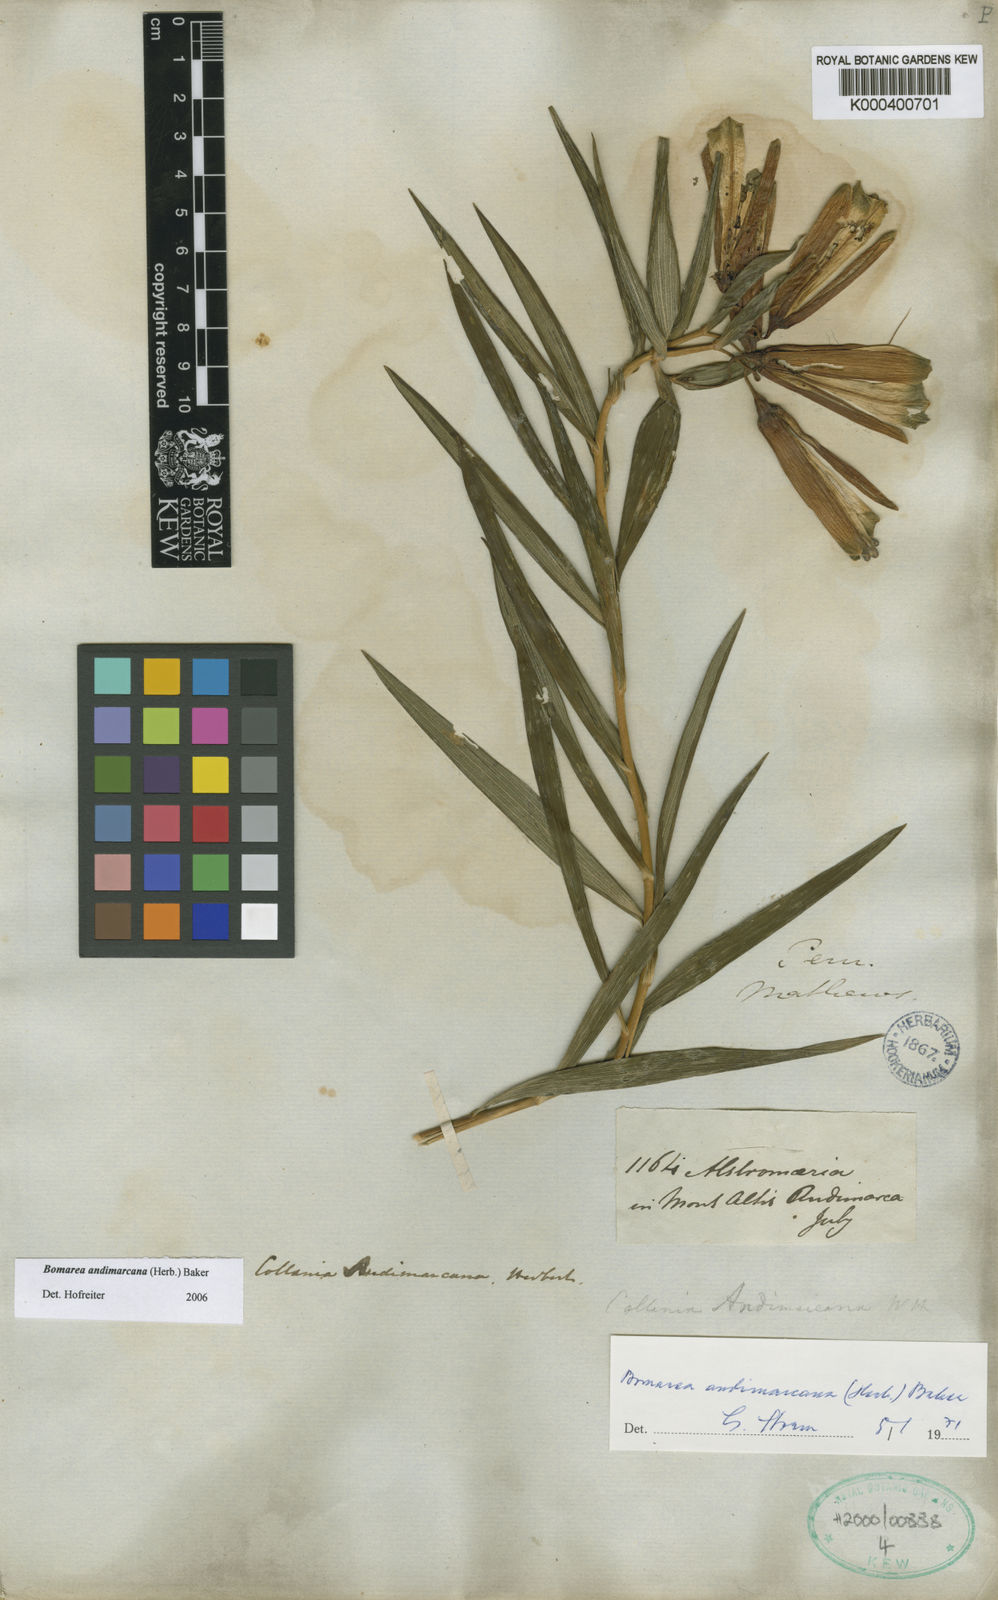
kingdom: Plantae
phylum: Tracheophyta
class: Liliopsida
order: Liliales
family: Alstroemeriaceae
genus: Bomarea
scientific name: Bomarea andimarcana
